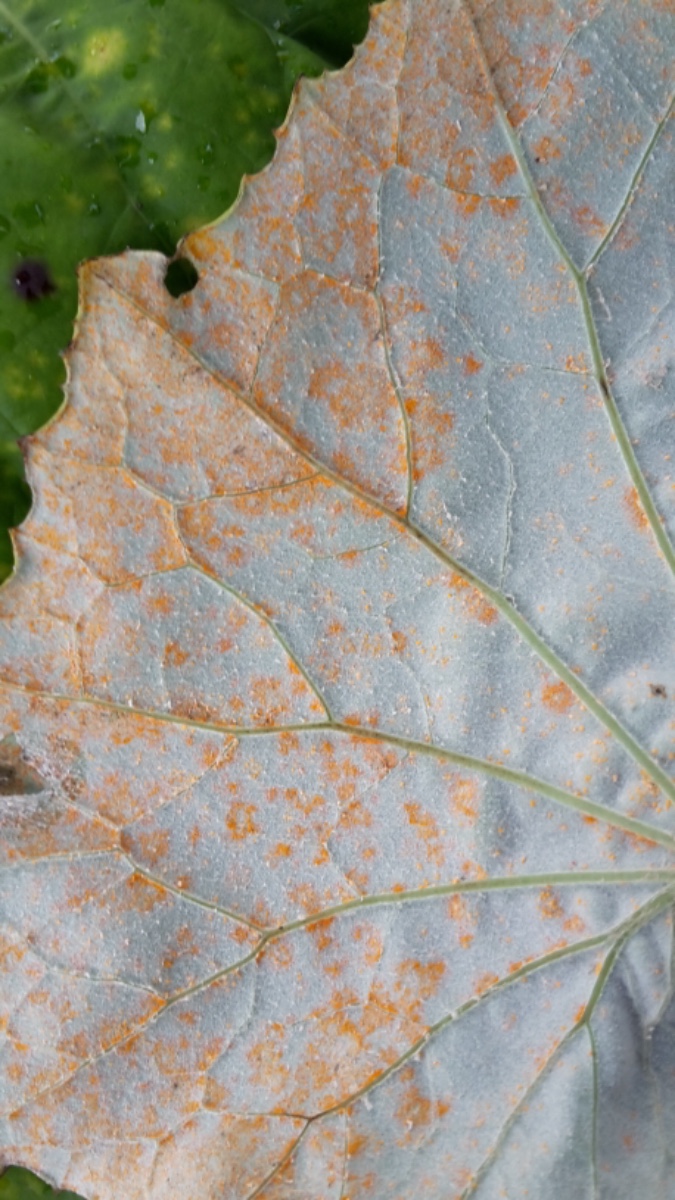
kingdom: Fungi
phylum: Basidiomycota
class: Pucciniomycetes
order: Pucciniales
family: Coleosporiaceae
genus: Coleosporium
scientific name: Coleosporium tussilaginis
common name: almindelig fyrrenålerust
